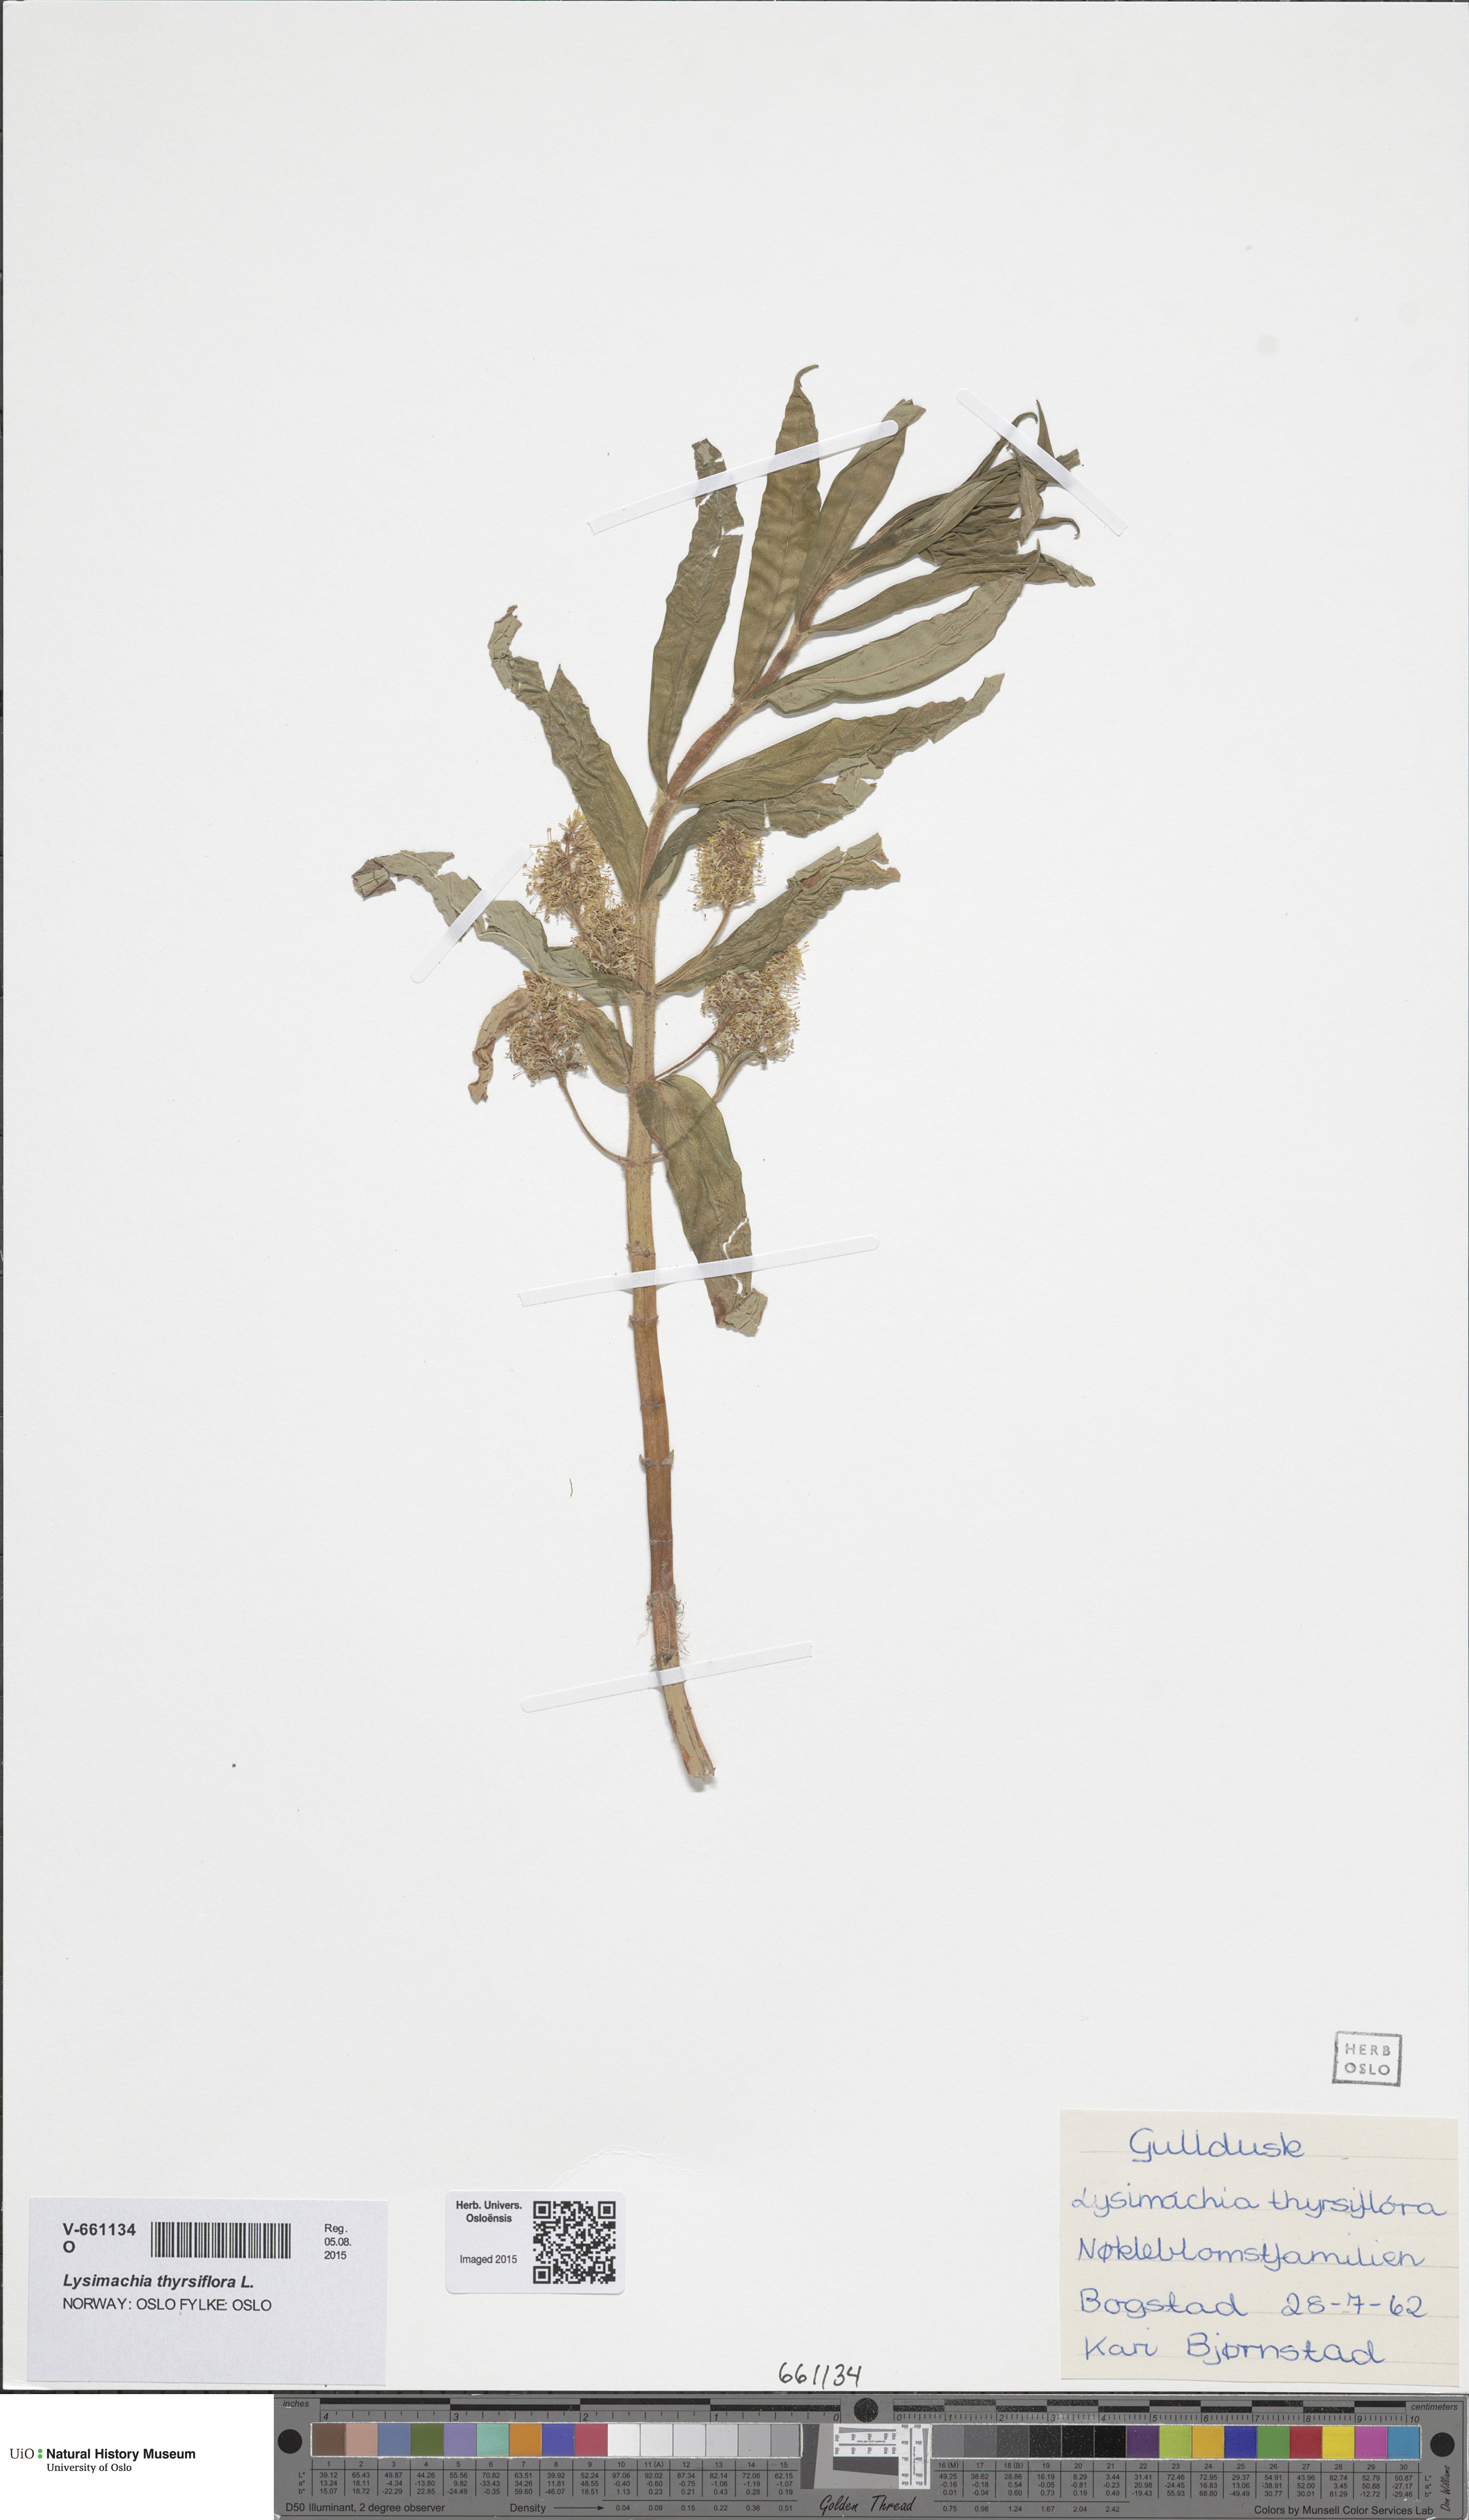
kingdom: Plantae
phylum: Tracheophyta
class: Magnoliopsida
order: Ericales
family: Primulaceae
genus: Lysimachia
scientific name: Lysimachia thyrsiflora
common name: Tufted loosestrife
